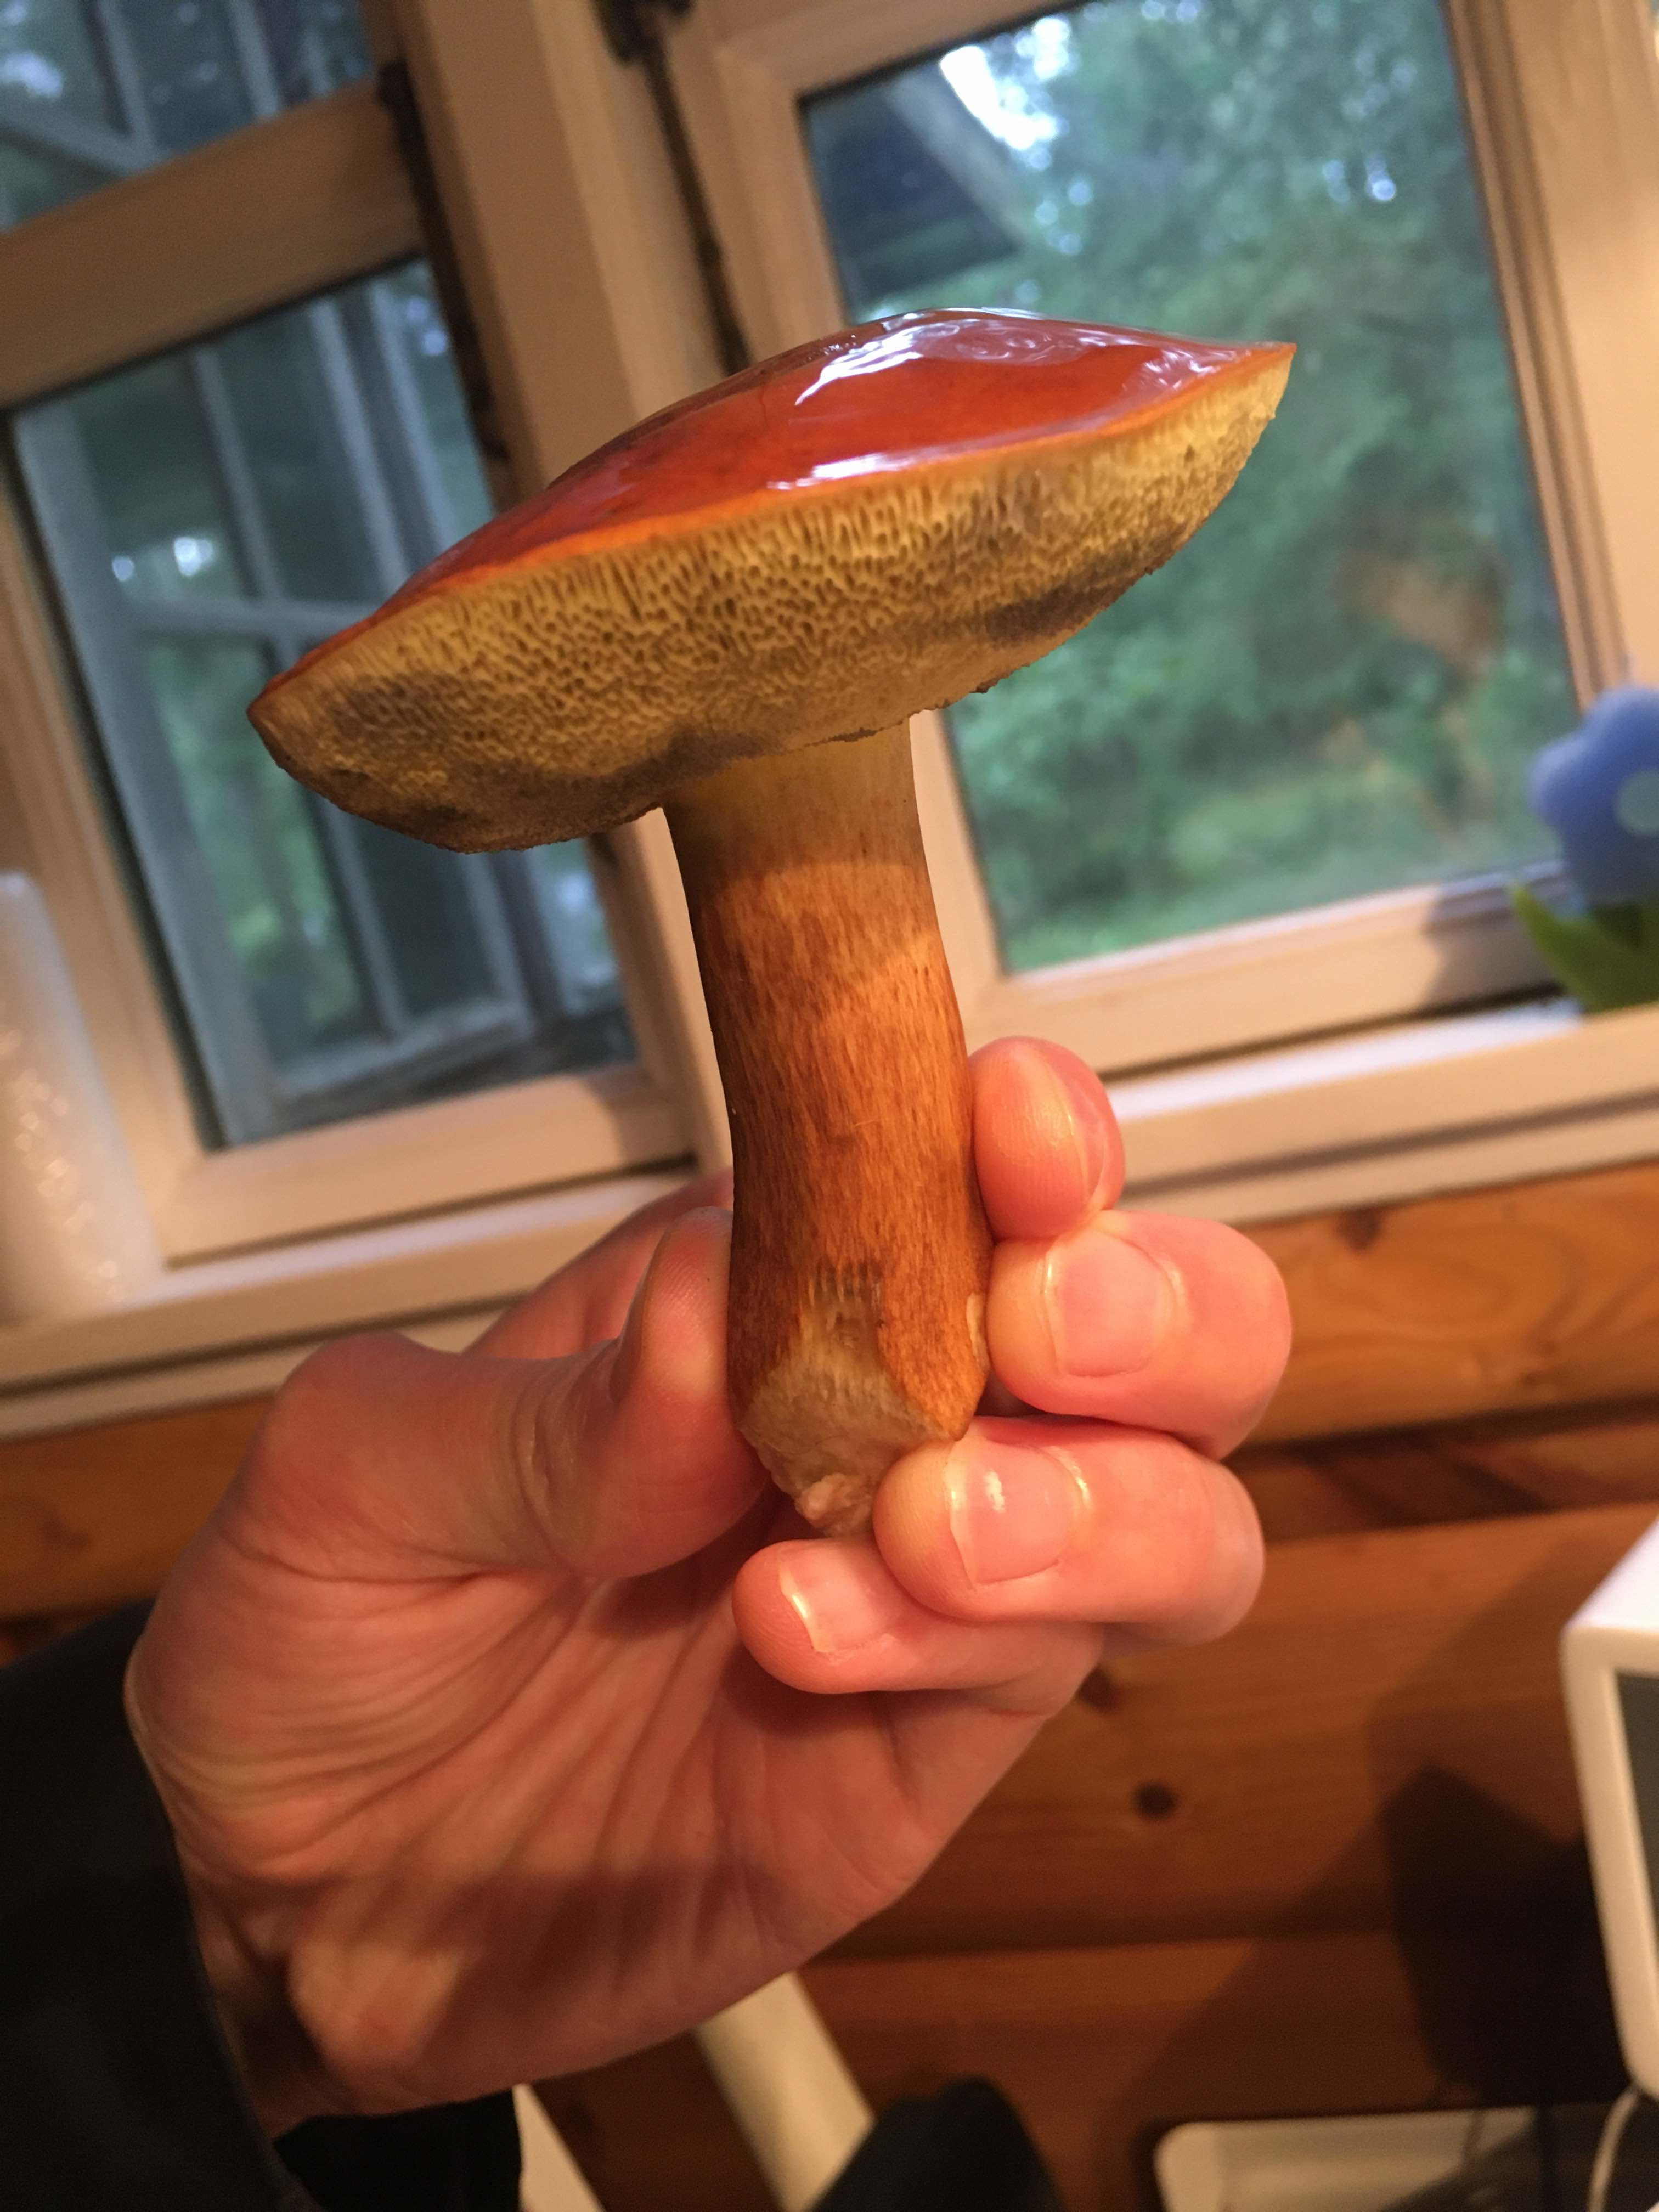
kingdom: Fungi
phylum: Basidiomycota
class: Agaricomycetes
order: Boletales
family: Boletaceae
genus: Imleria
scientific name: Imleria badia
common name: brunstokket rørhat
